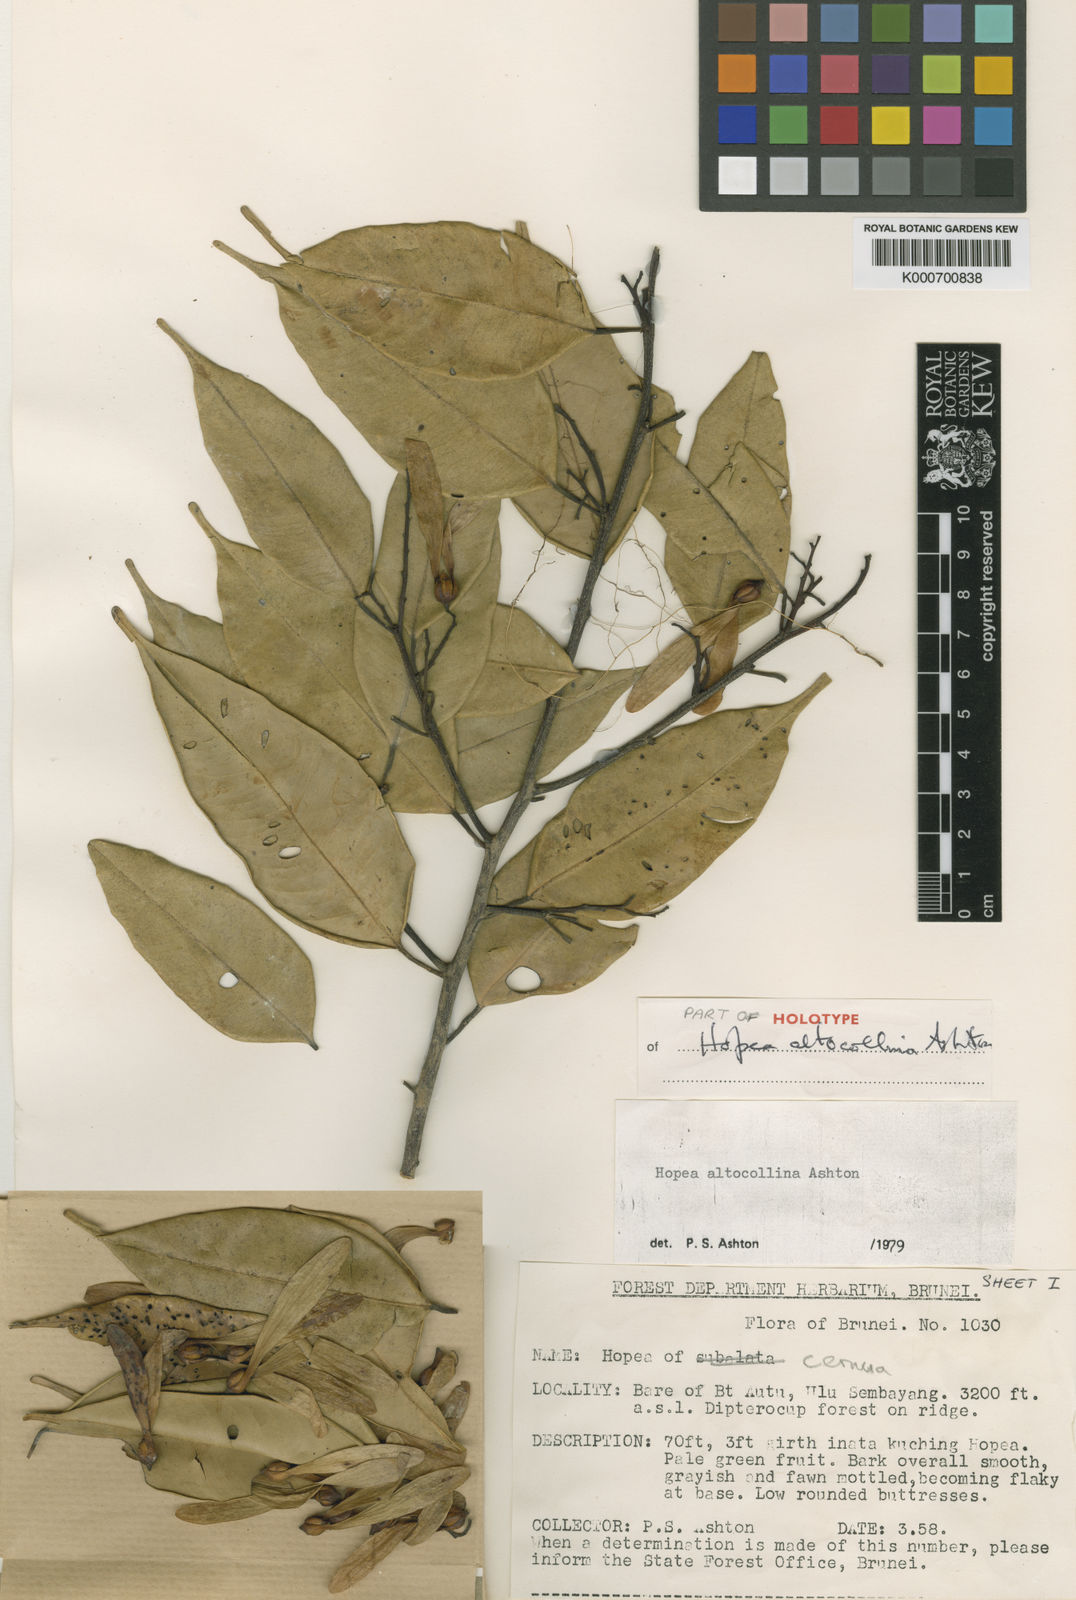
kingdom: Plantae
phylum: Tracheophyta
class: Magnoliopsida
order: Malvales
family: Dipterocarpaceae
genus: Hopea
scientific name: Hopea altocollina
